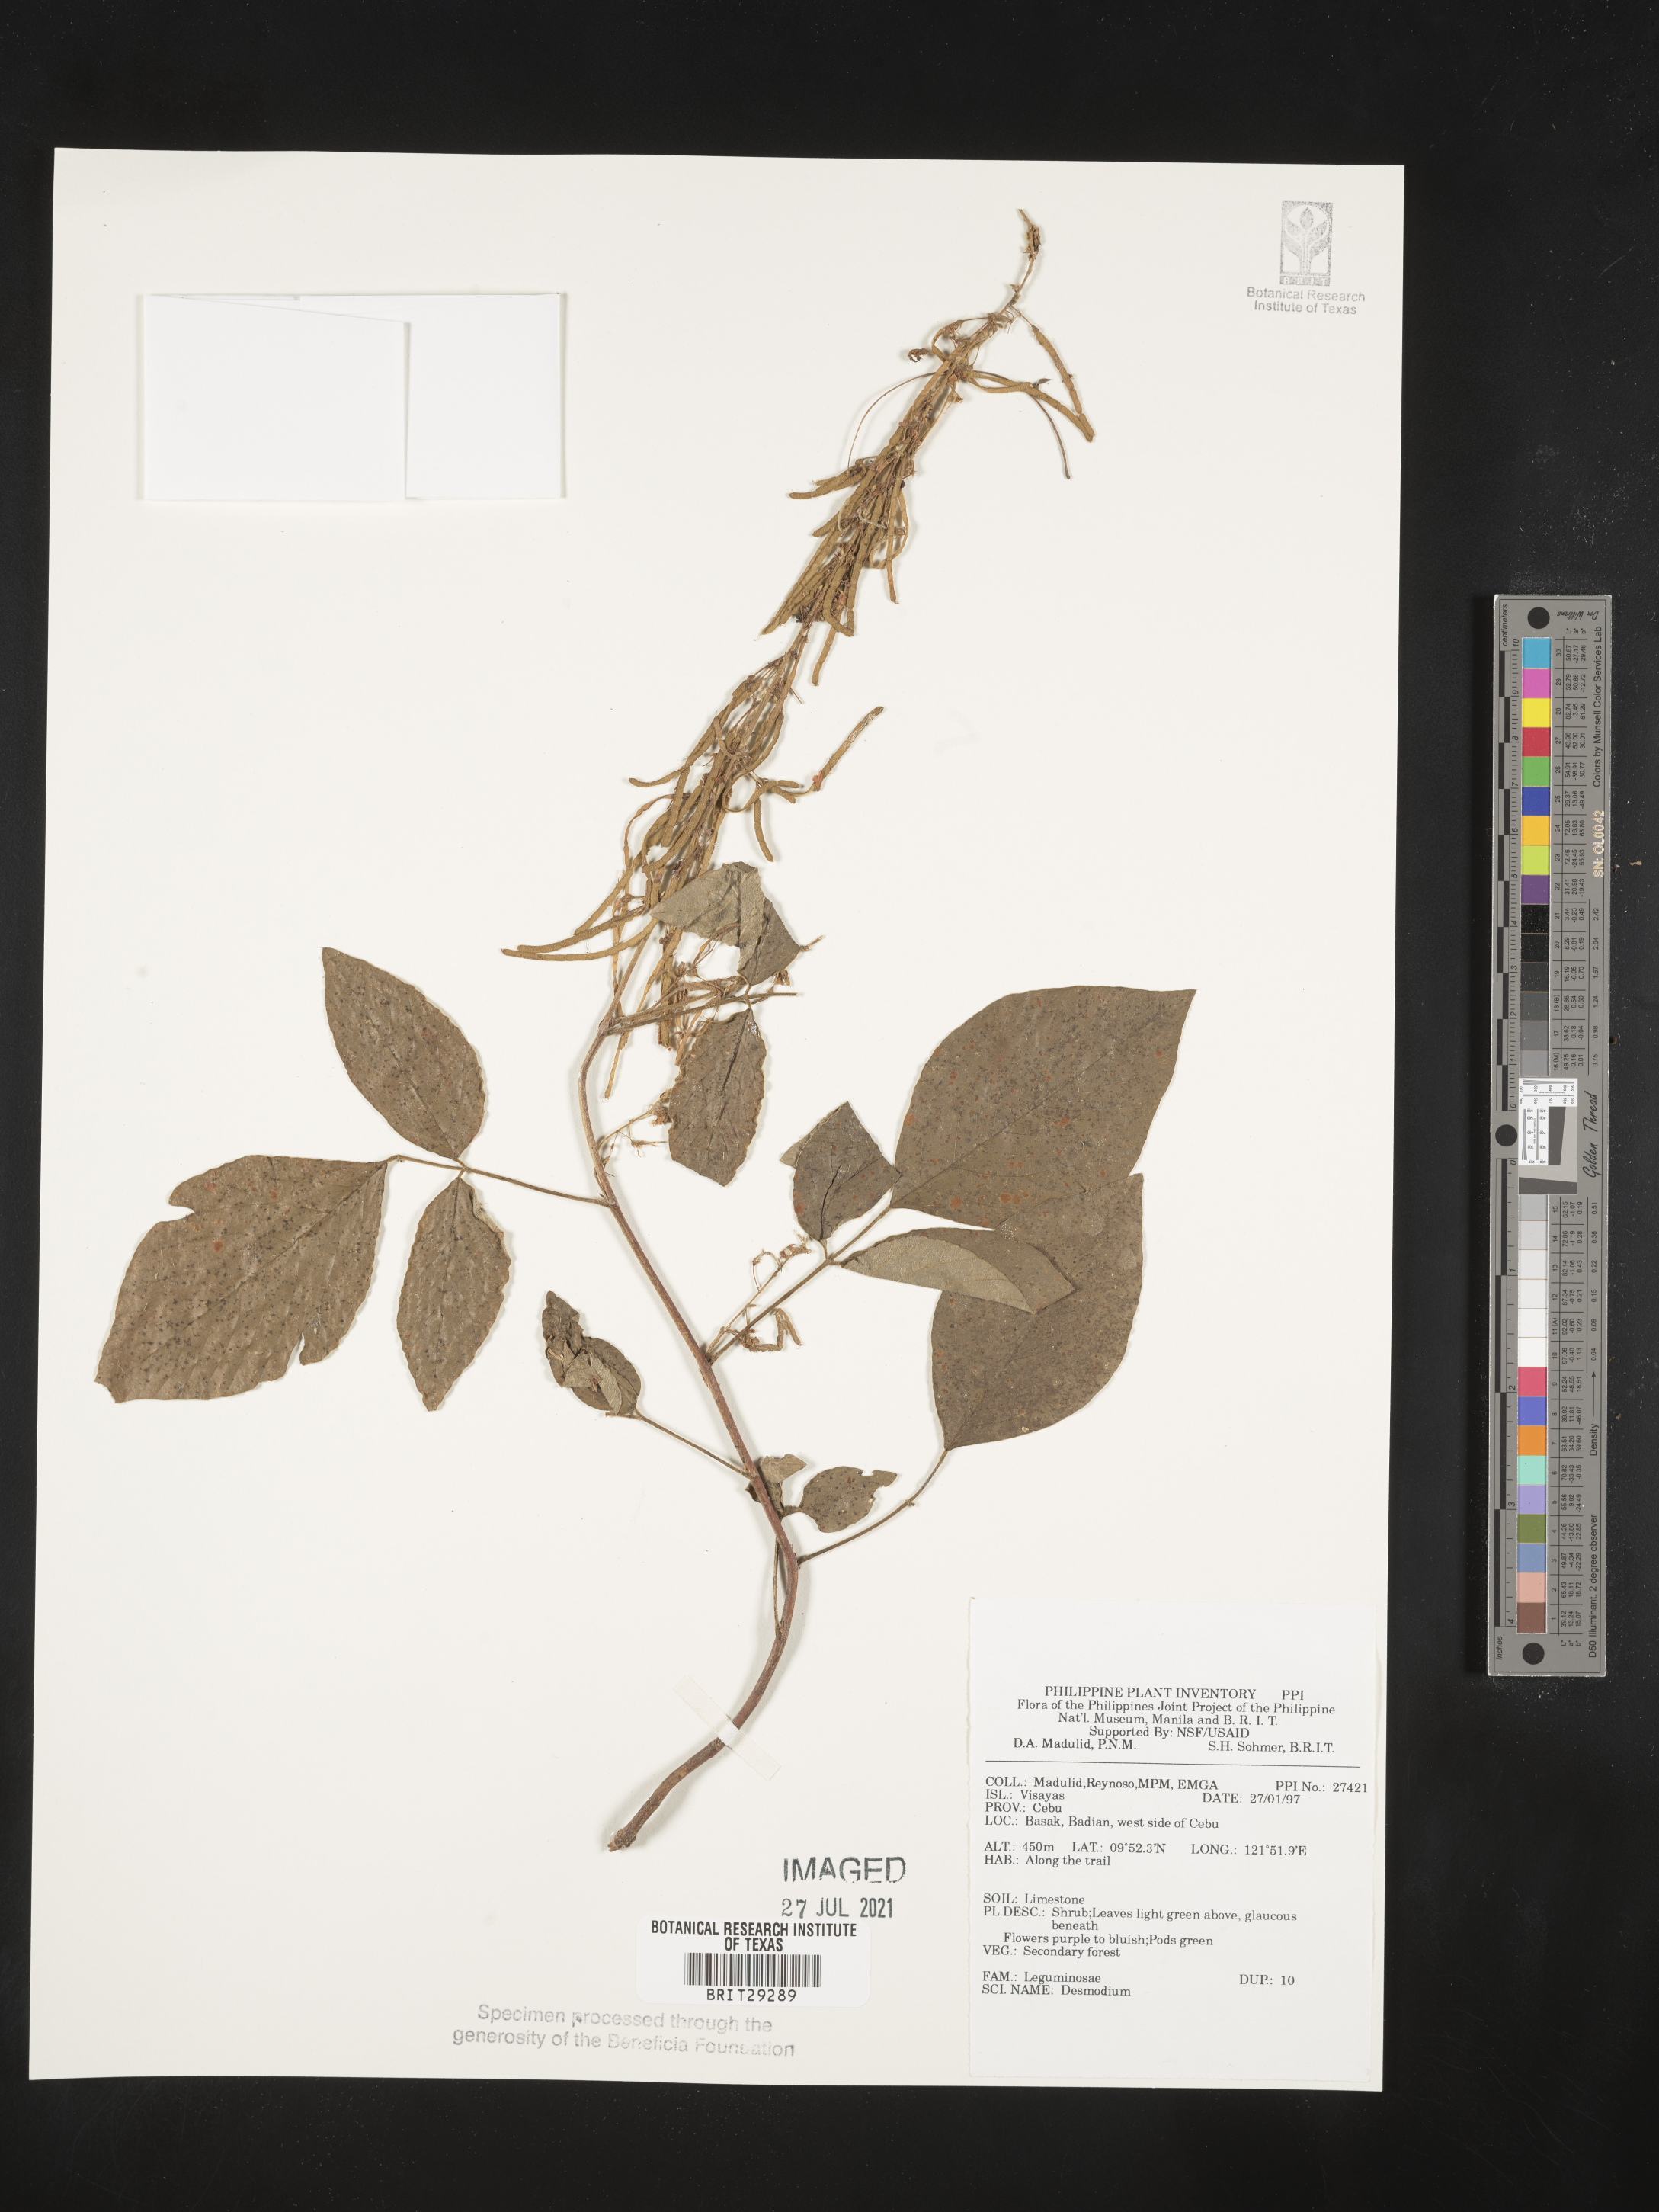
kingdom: Plantae
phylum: Tracheophyta
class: Magnoliopsida
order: Fabales
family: Fabaceae
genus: Desmodium
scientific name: Desmodium
